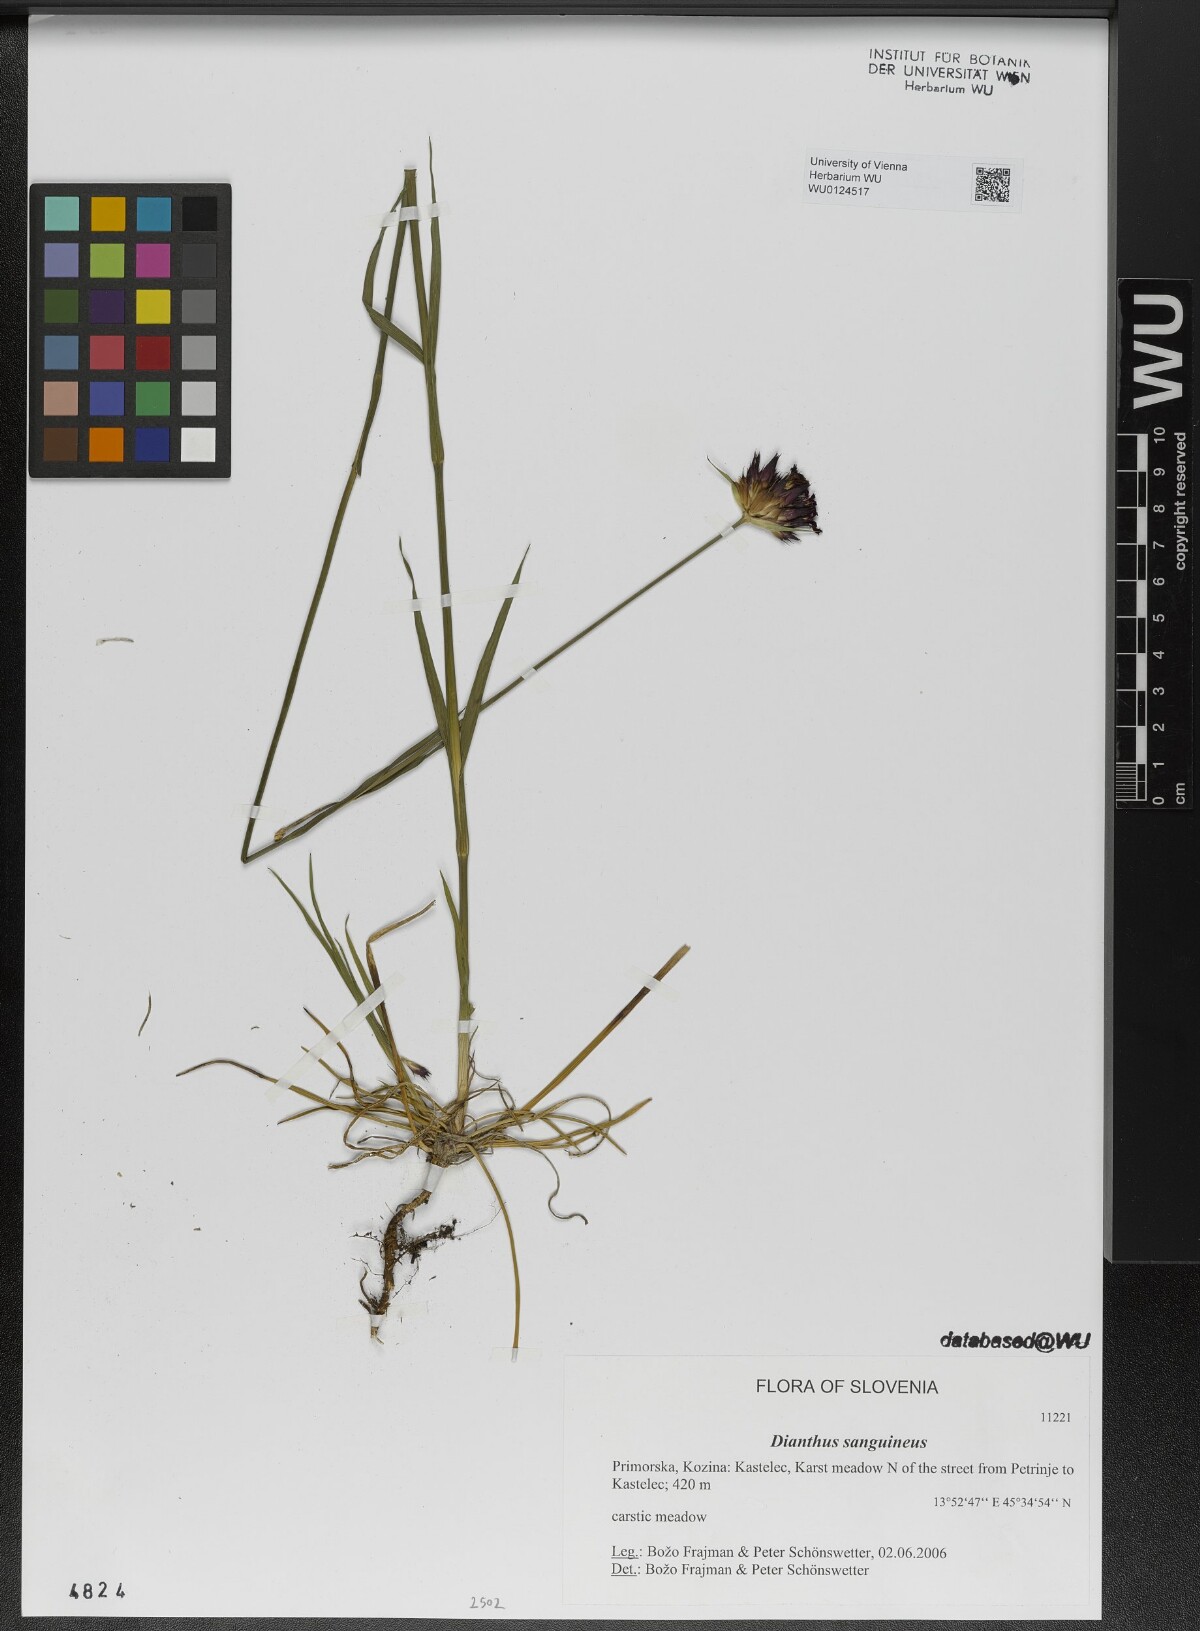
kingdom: Plantae
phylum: Tracheophyta
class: Magnoliopsida
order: Caryophyllales
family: Caryophyllaceae
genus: Dianthus
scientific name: Dianthus carthusianorum
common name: Carthusian pink
